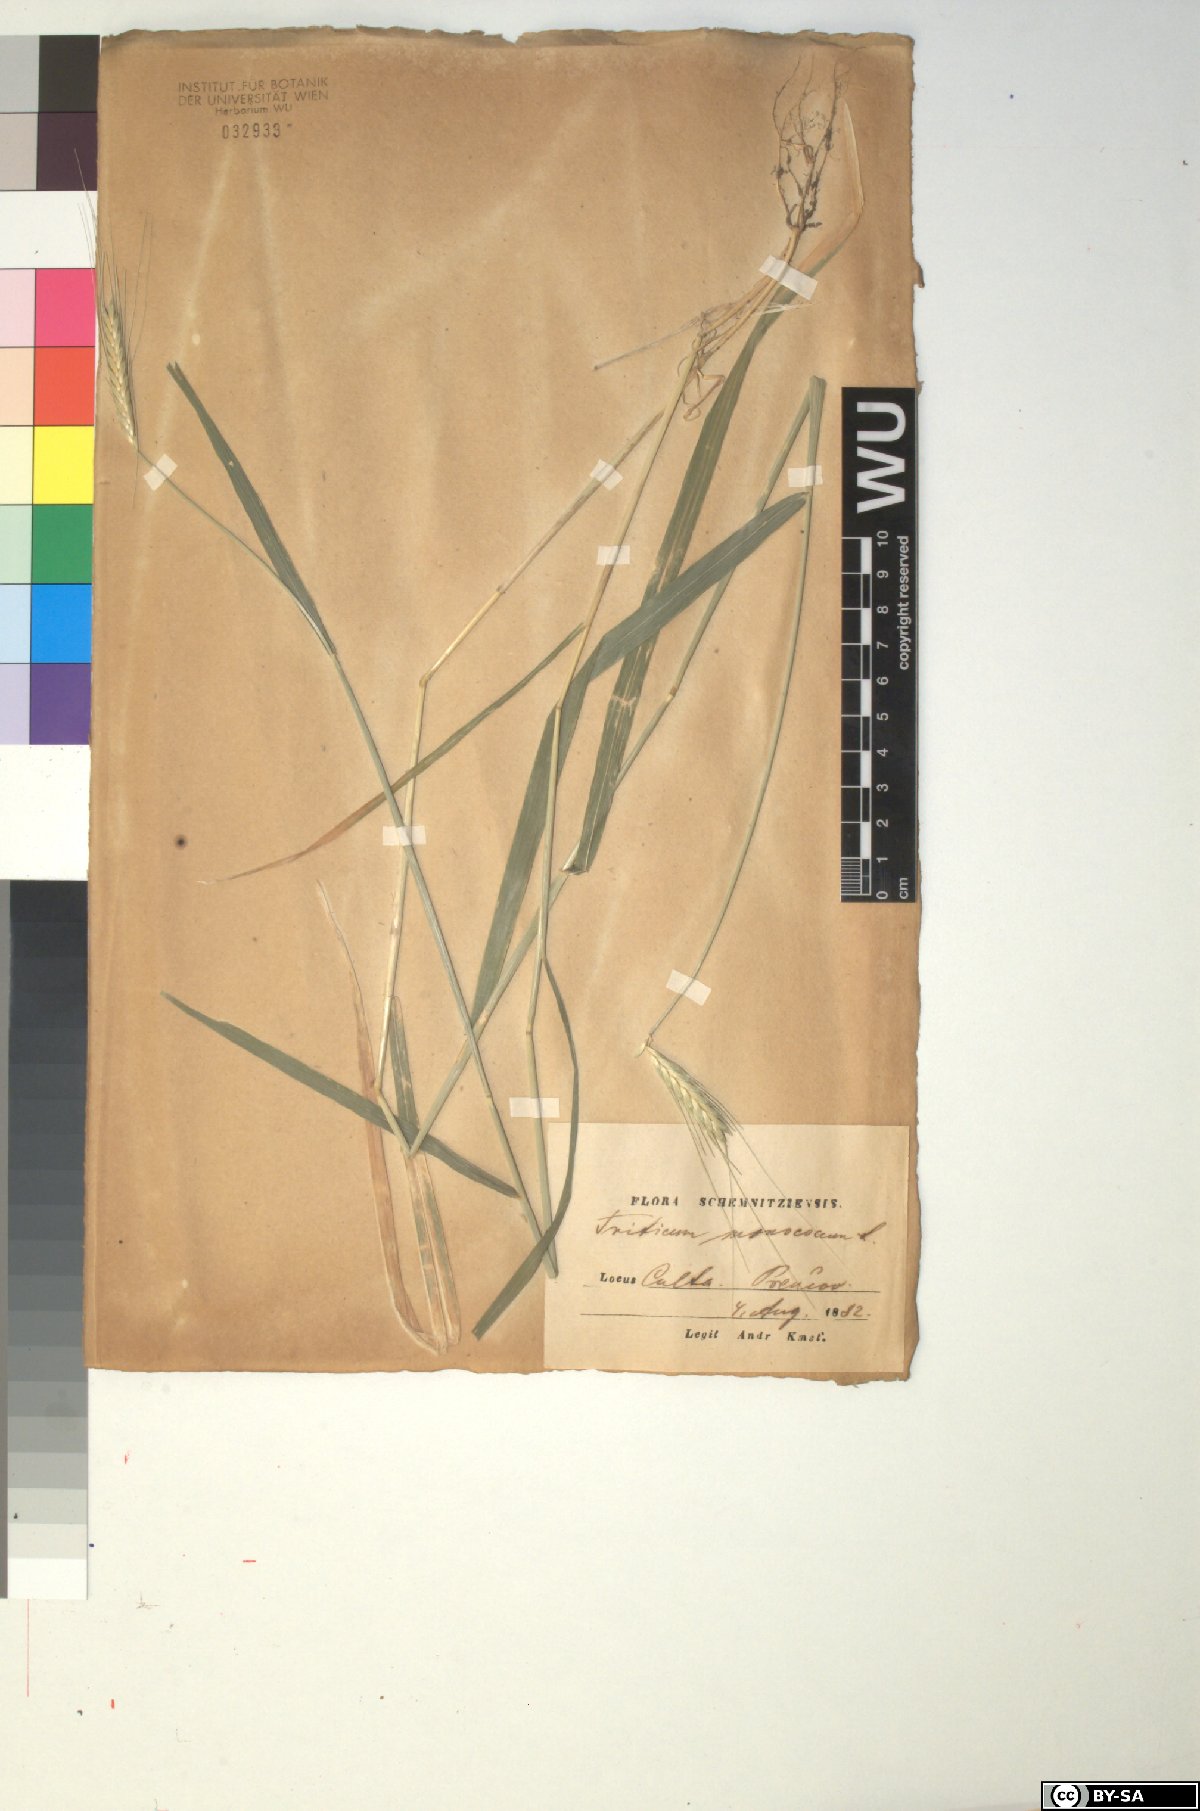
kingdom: Plantae
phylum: Tracheophyta
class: Liliopsida
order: Poales
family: Poaceae
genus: Triticum
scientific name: Triticum monococcum
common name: Einkorn
